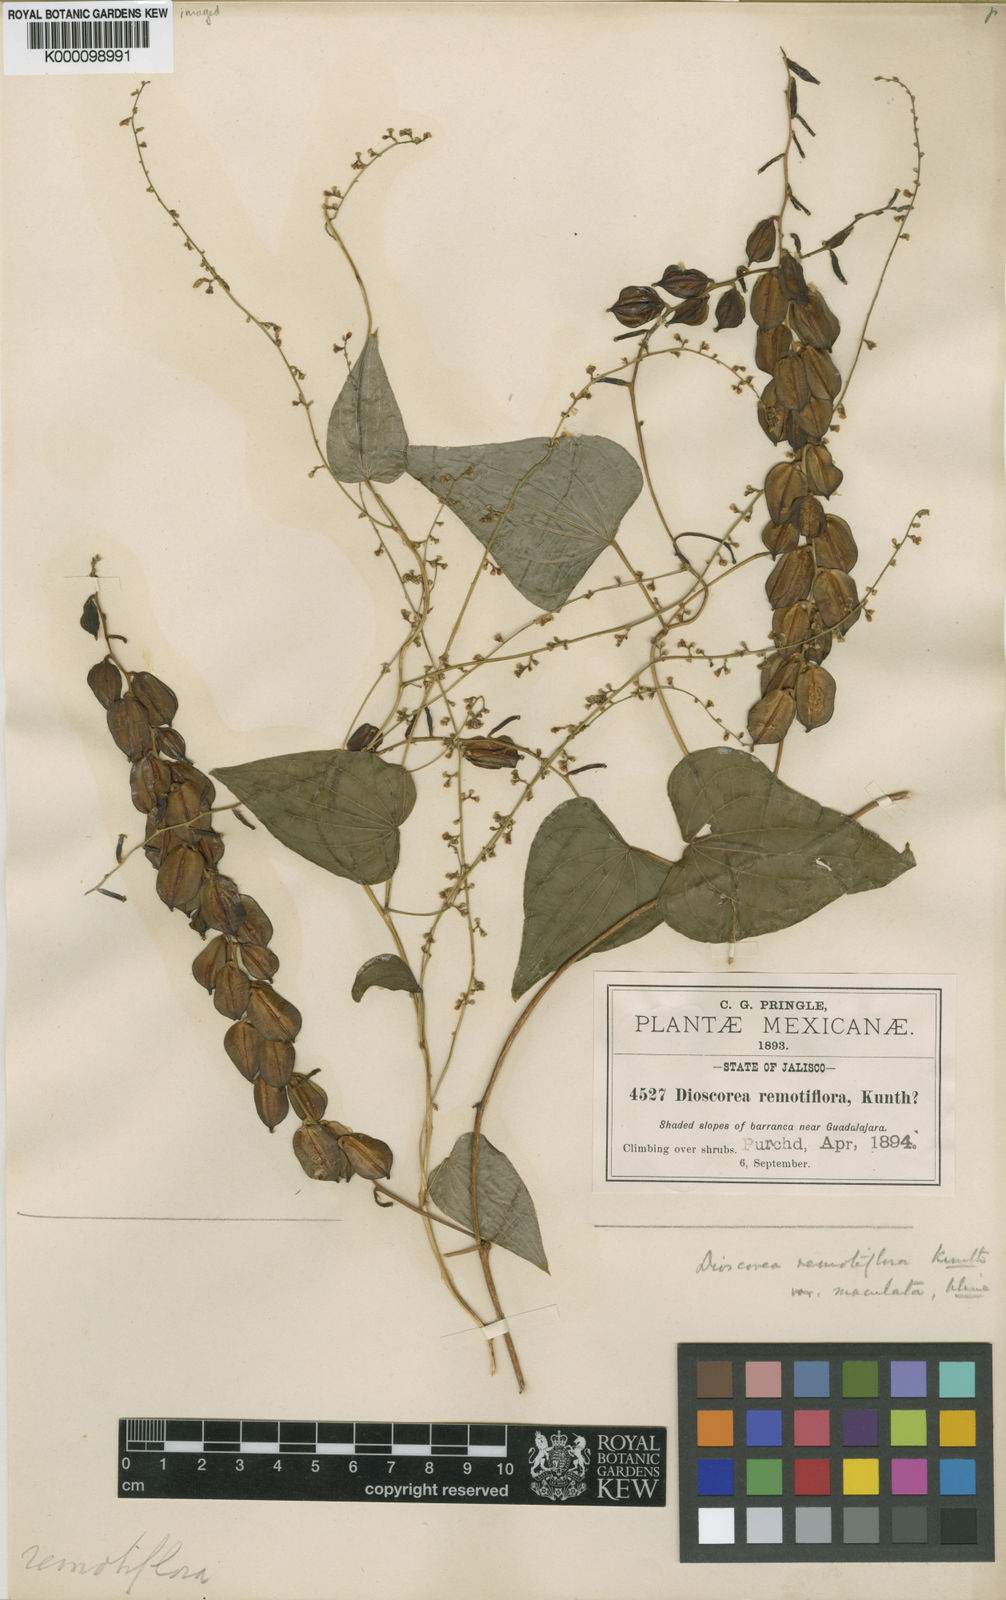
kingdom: Plantae
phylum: Tracheophyta
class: Liliopsida
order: Dioscoreales
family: Dioscoreaceae
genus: Dioscorea
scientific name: Dioscorea remotiflora
